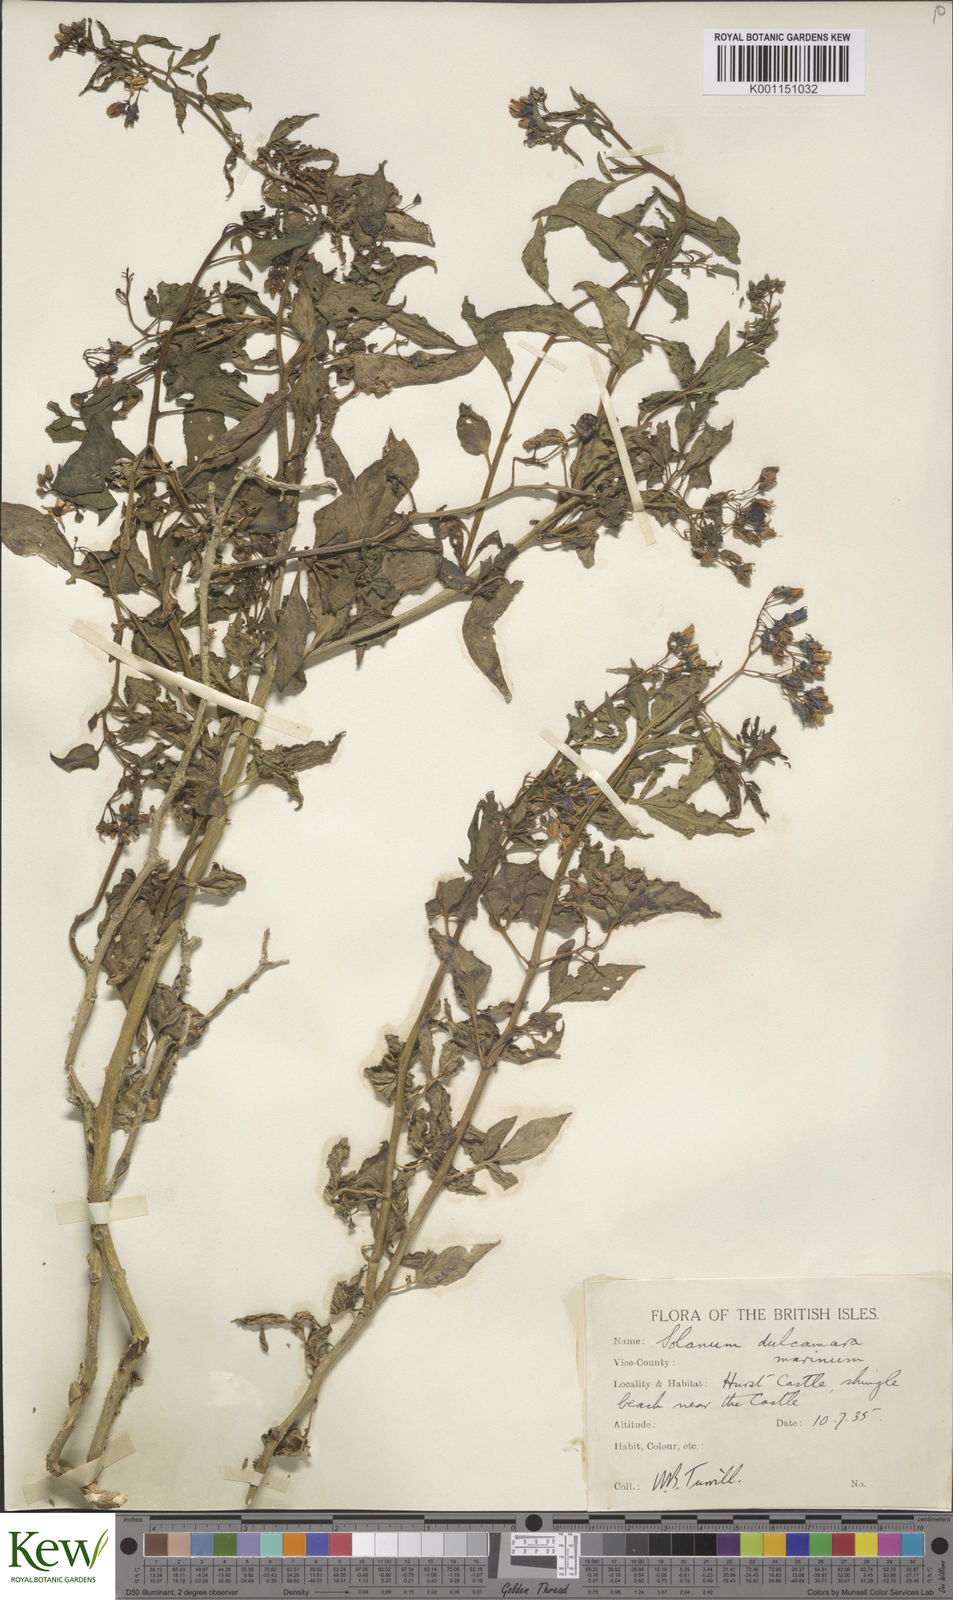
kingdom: Plantae
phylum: Tracheophyta
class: Magnoliopsida
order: Solanales
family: Solanaceae
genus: Solanum
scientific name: Solanum dulcamara
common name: Climbing nightshade
